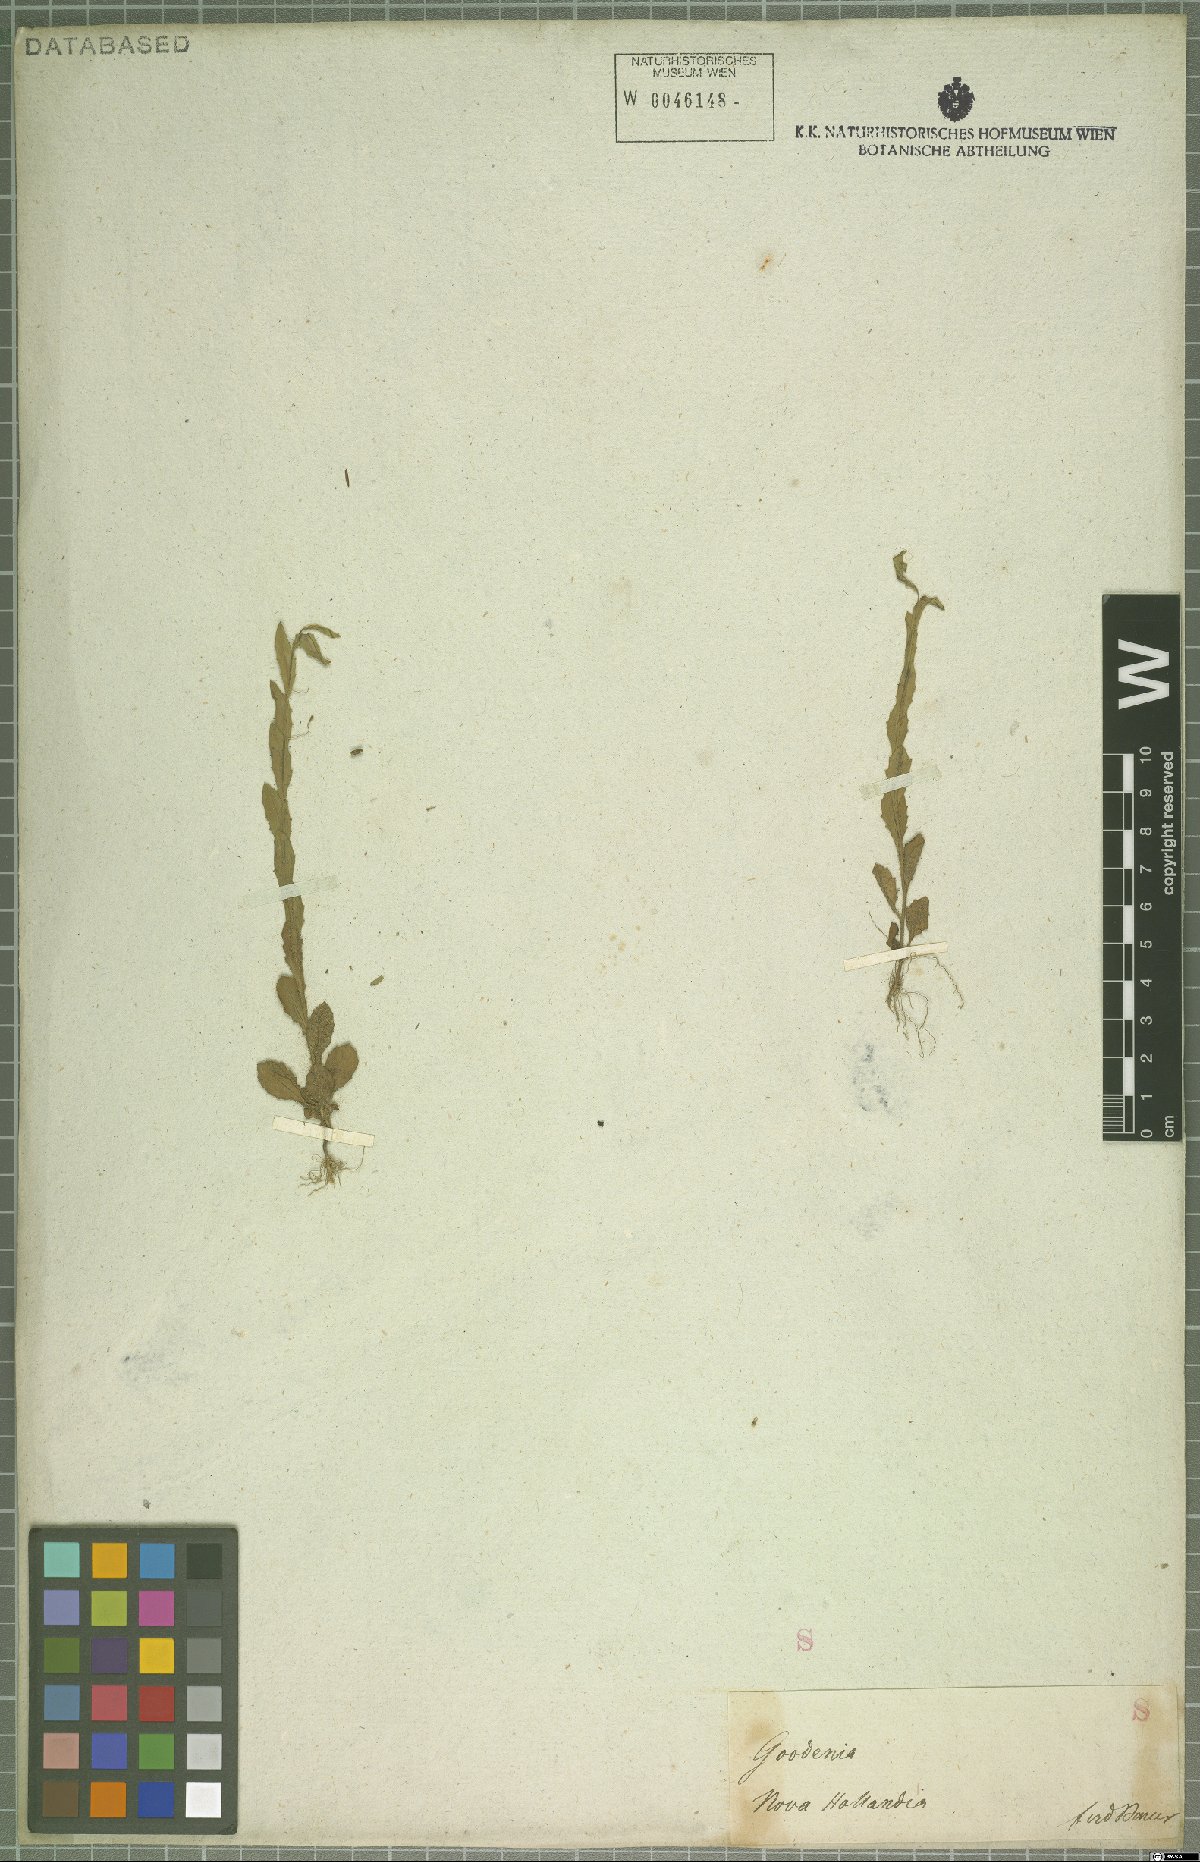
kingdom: Plantae
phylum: Tracheophyta
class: Magnoliopsida
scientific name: Magnoliopsida
